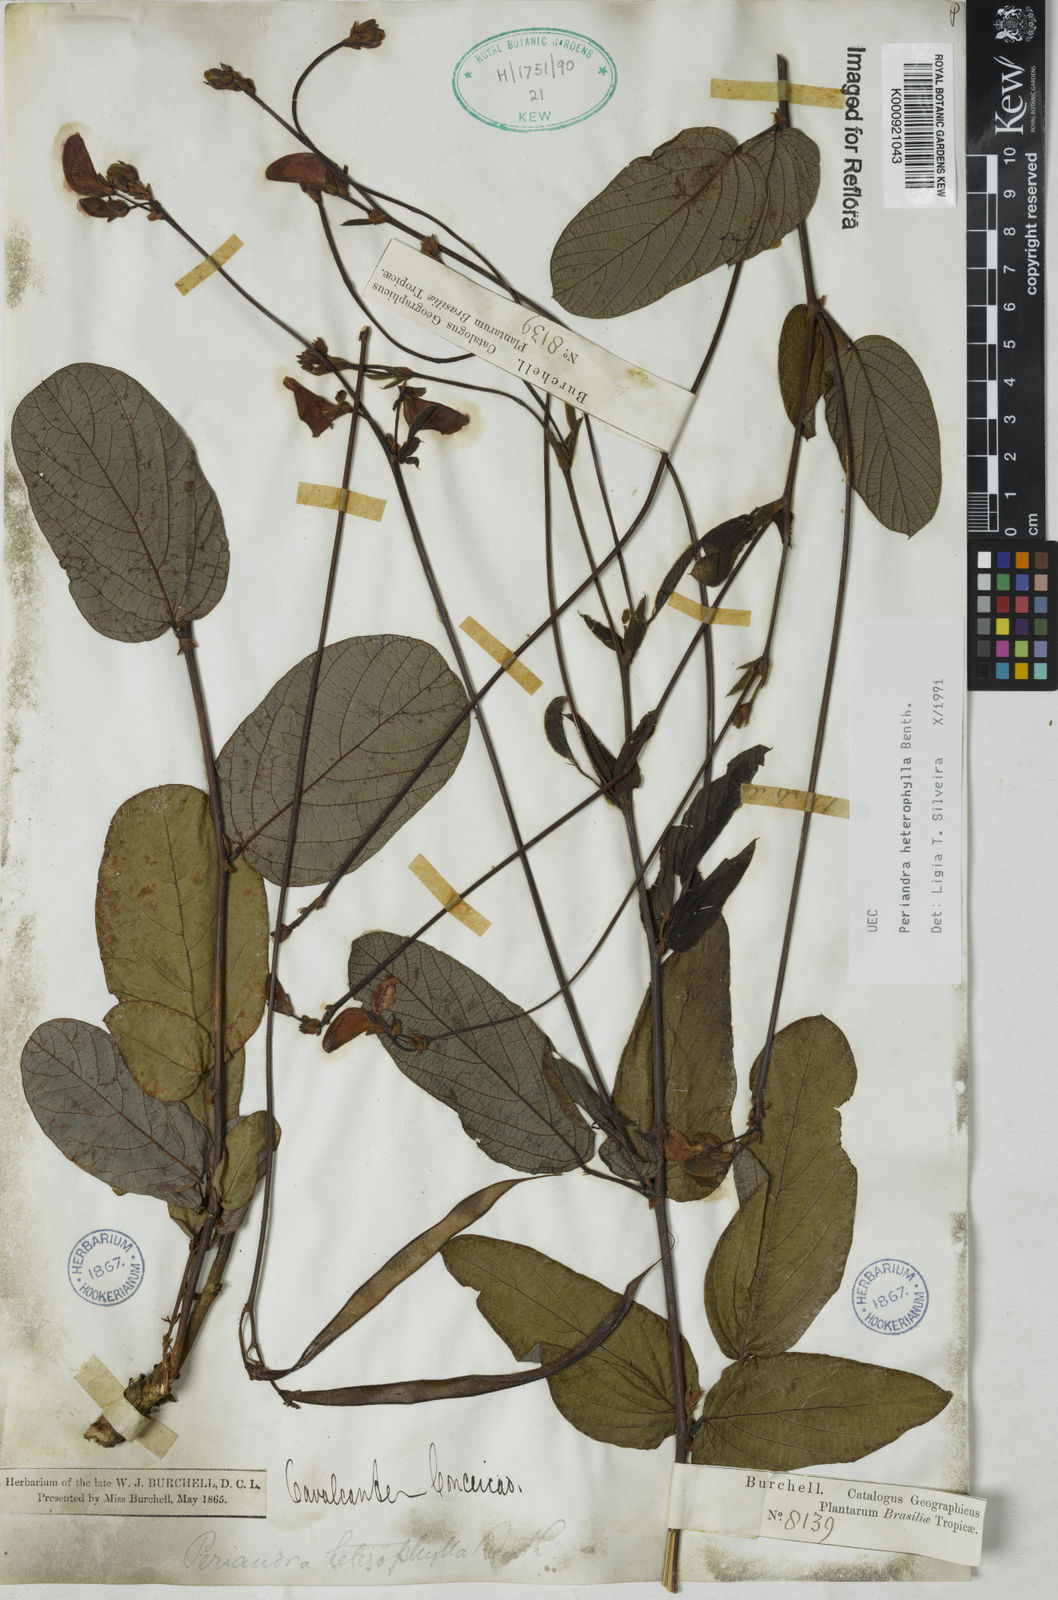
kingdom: Plantae
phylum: Tracheophyta
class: Magnoliopsida
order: Fabales
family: Fabaceae
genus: Periandra
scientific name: Periandra heterophylla
